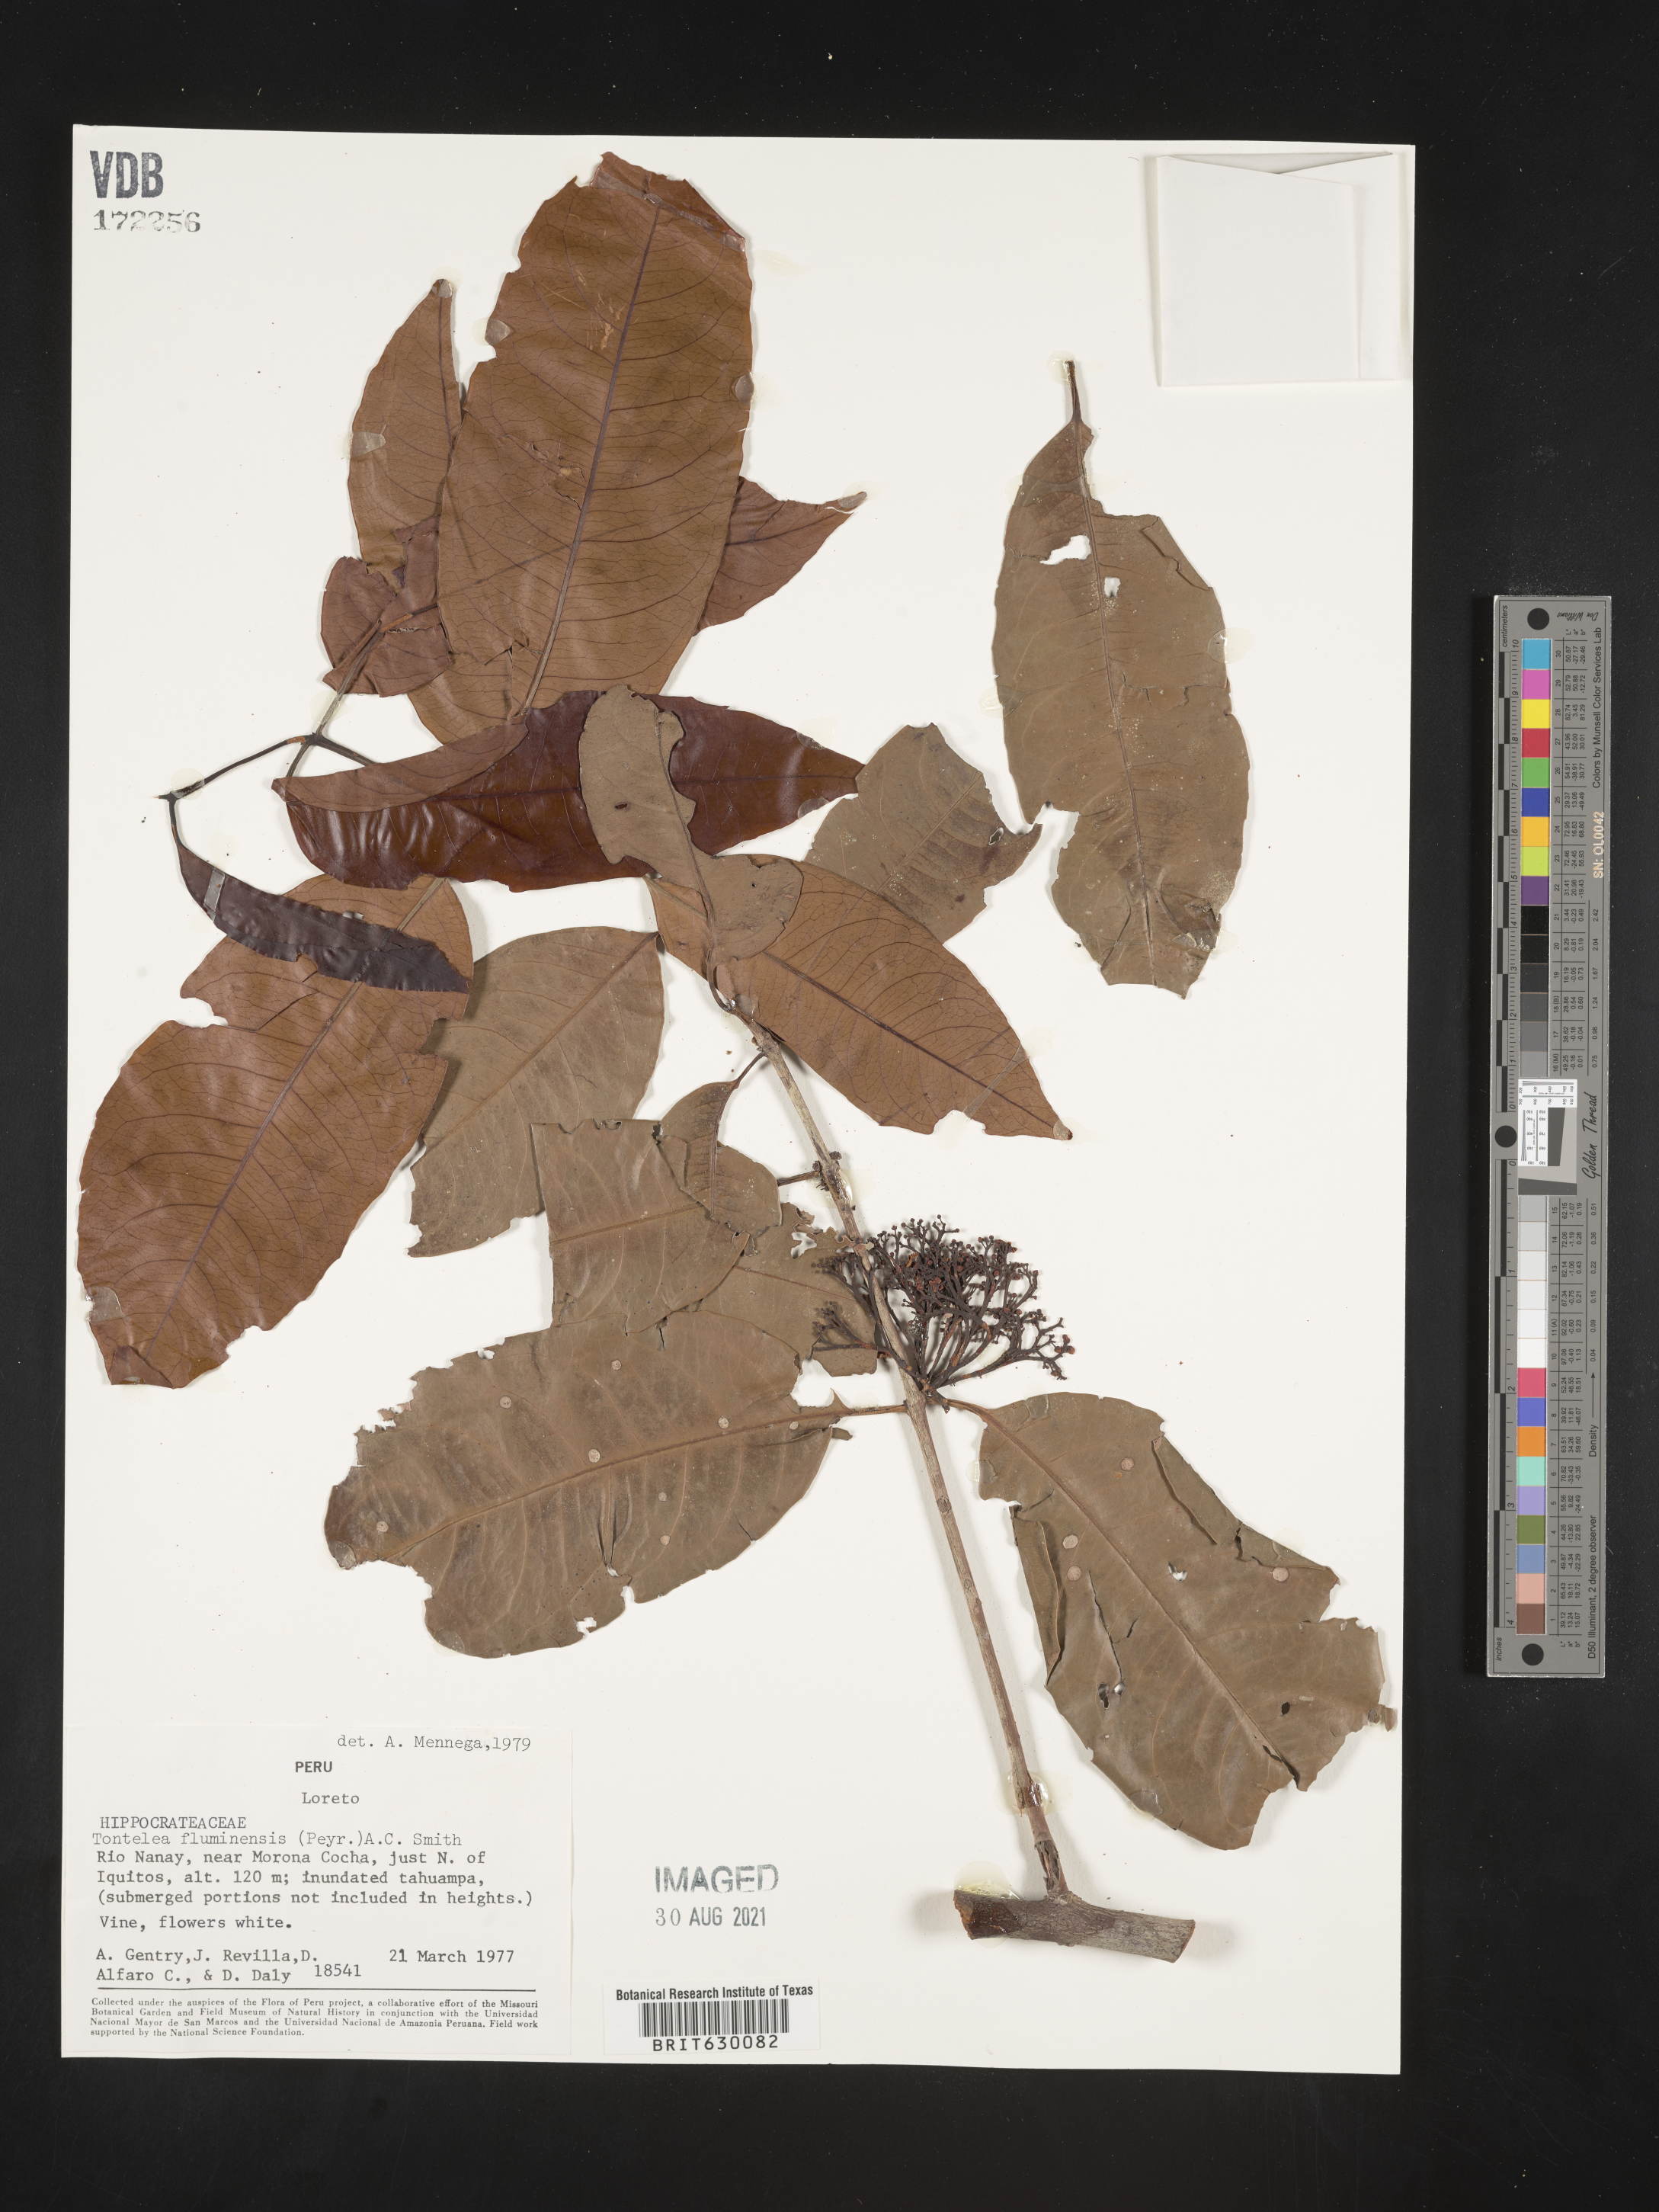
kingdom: Plantae
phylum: Tracheophyta
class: Magnoliopsida
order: Celastrales
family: Celastraceae
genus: Tontelea
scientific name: Tontelea passiflora
